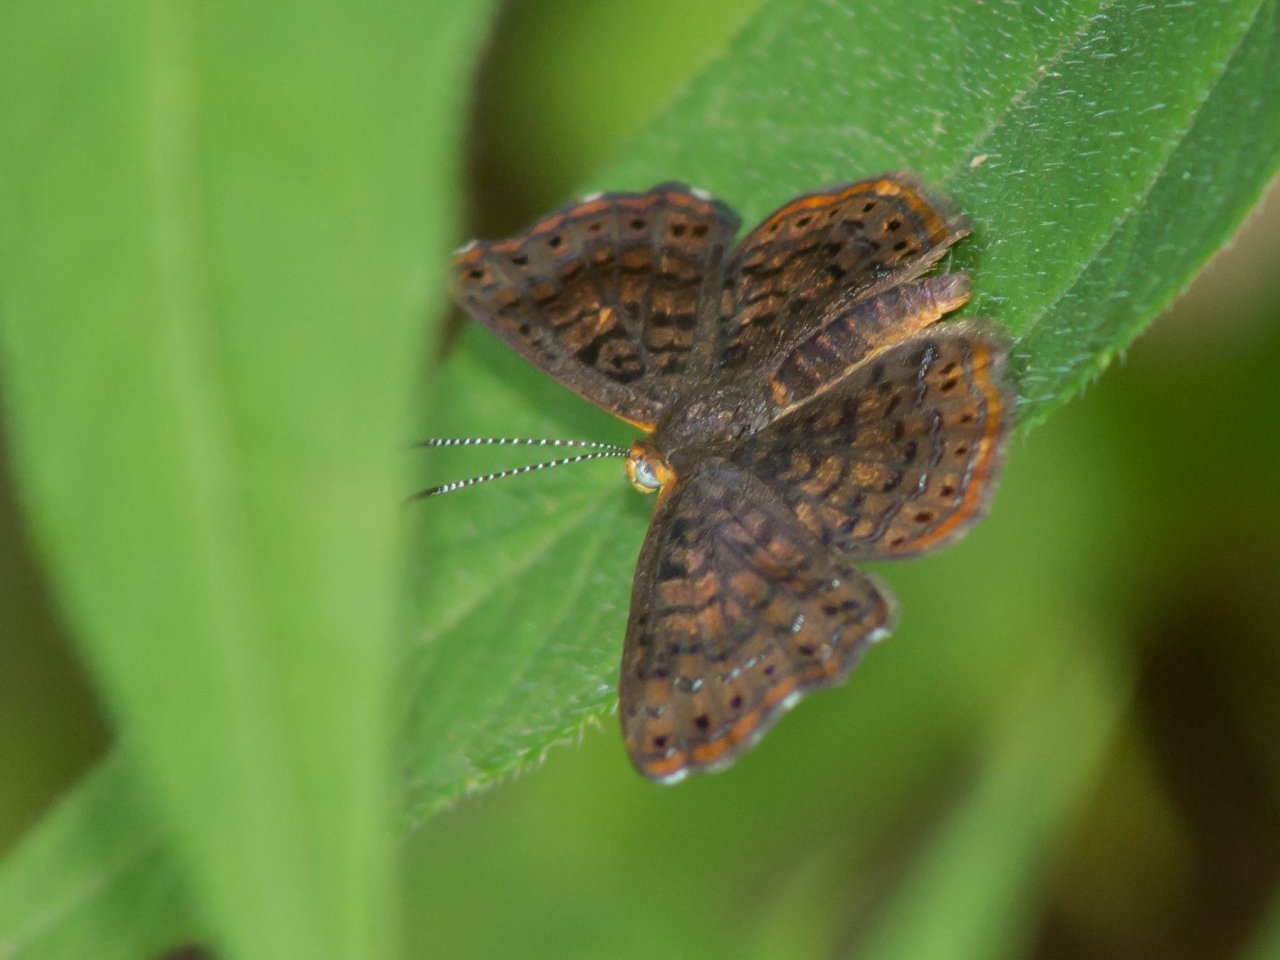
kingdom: Animalia
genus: Calephelis
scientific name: Calephelis borealis
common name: Northern Metalmark
